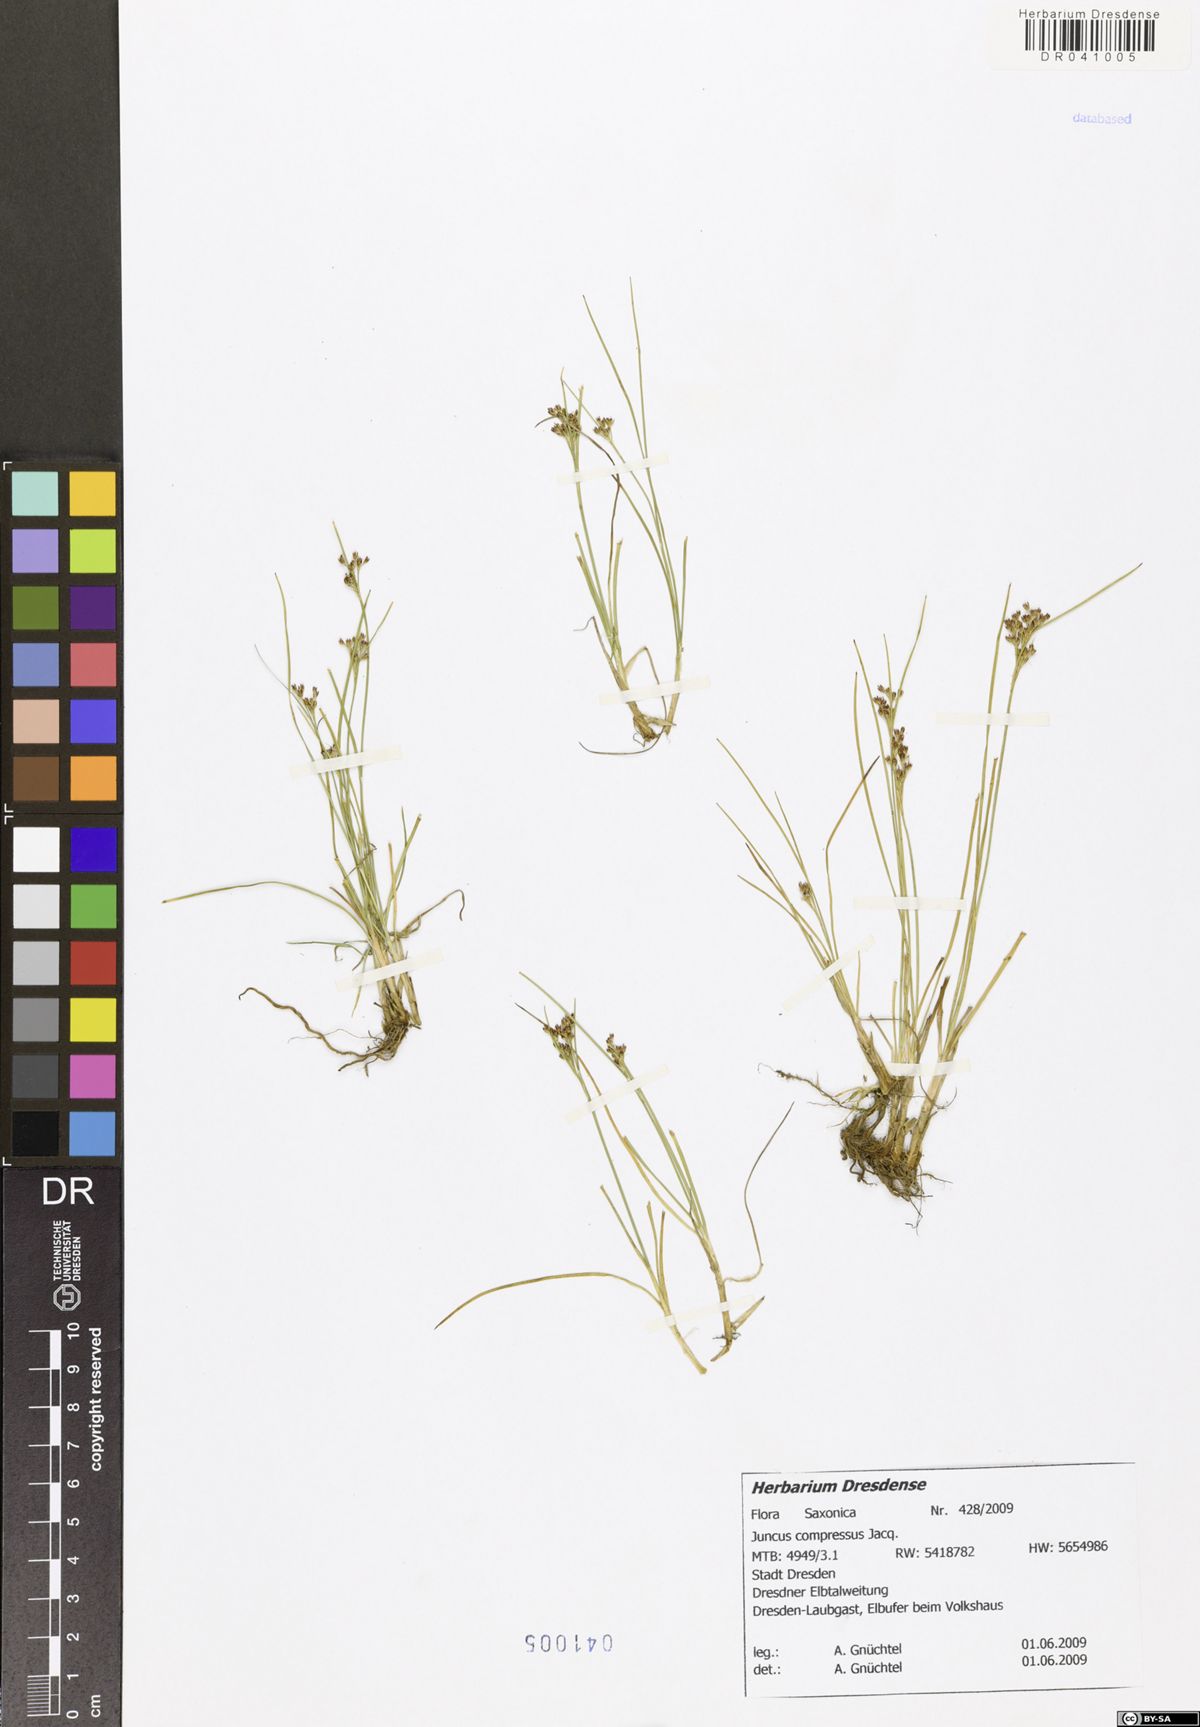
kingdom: Plantae
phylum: Tracheophyta
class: Liliopsida
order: Poales
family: Juncaceae
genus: Juncus
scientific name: Juncus compressus
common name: Round-fruited rush
